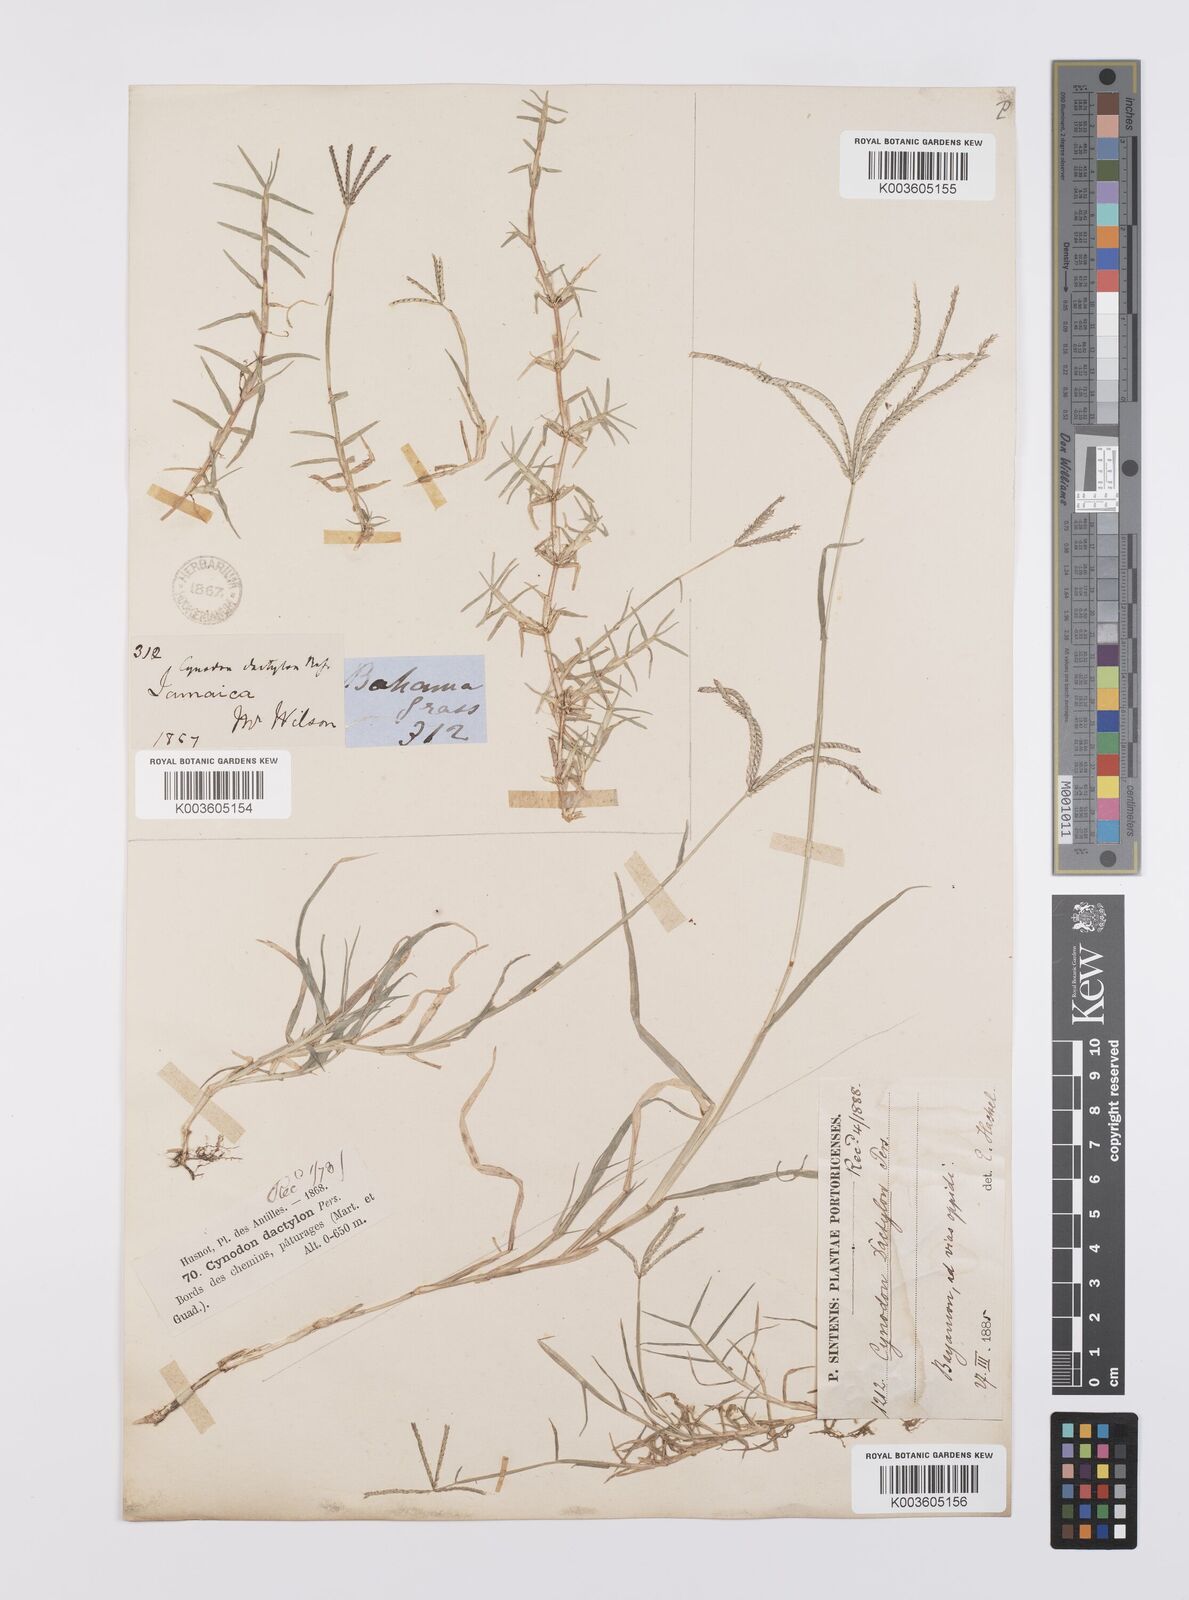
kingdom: Plantae
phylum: Tracheophyta
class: Liliopsida
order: Poales
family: Poaceae
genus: Cynodon
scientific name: Cynodon dactylon
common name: Bermuda grass
